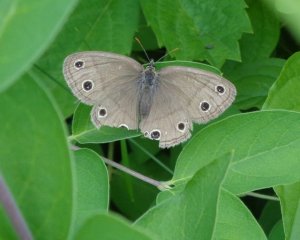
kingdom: Animalia
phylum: Arthropoda
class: Insecta
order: Lepidoptera
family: Nymphalidae
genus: Euptychia
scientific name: Euptychia cymela
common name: Little Wood Satyr
